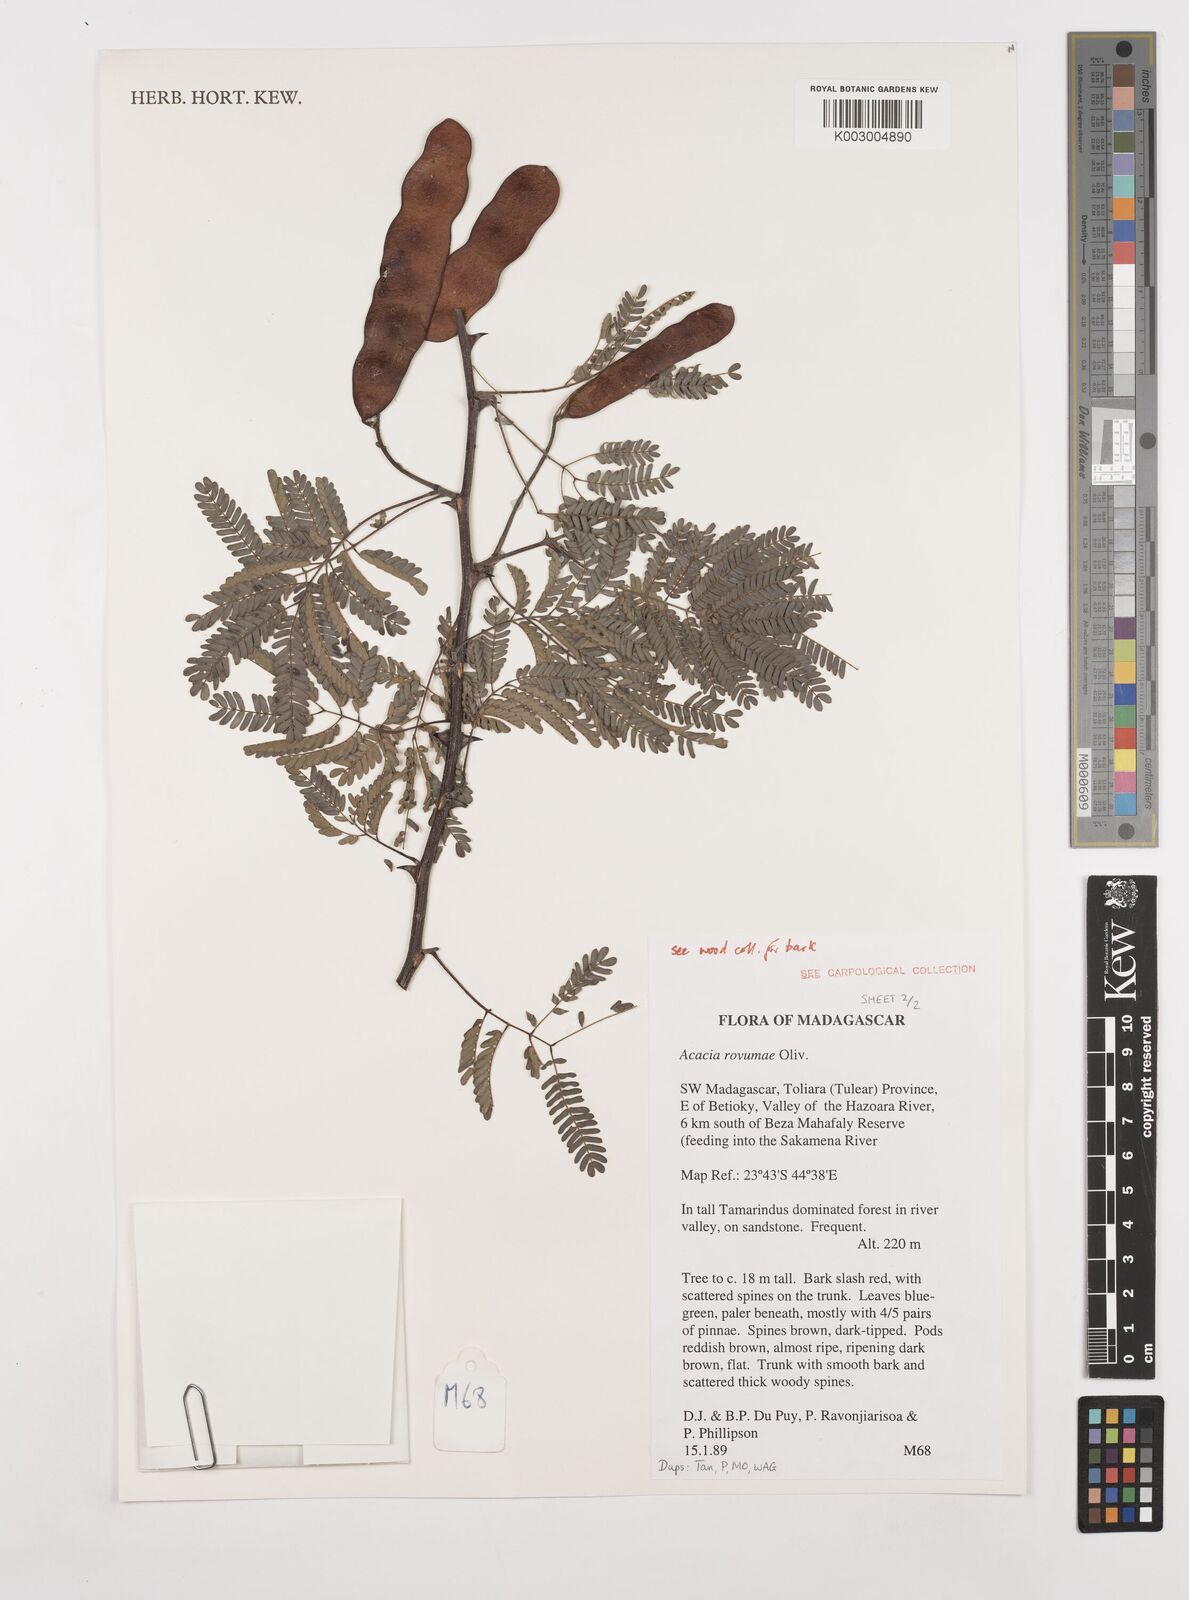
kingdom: Plantae
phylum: Tracheophyta
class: Magnoliopsida
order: Fabales
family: Fabaceae
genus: Senegalia
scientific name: Senegalia rovumae
